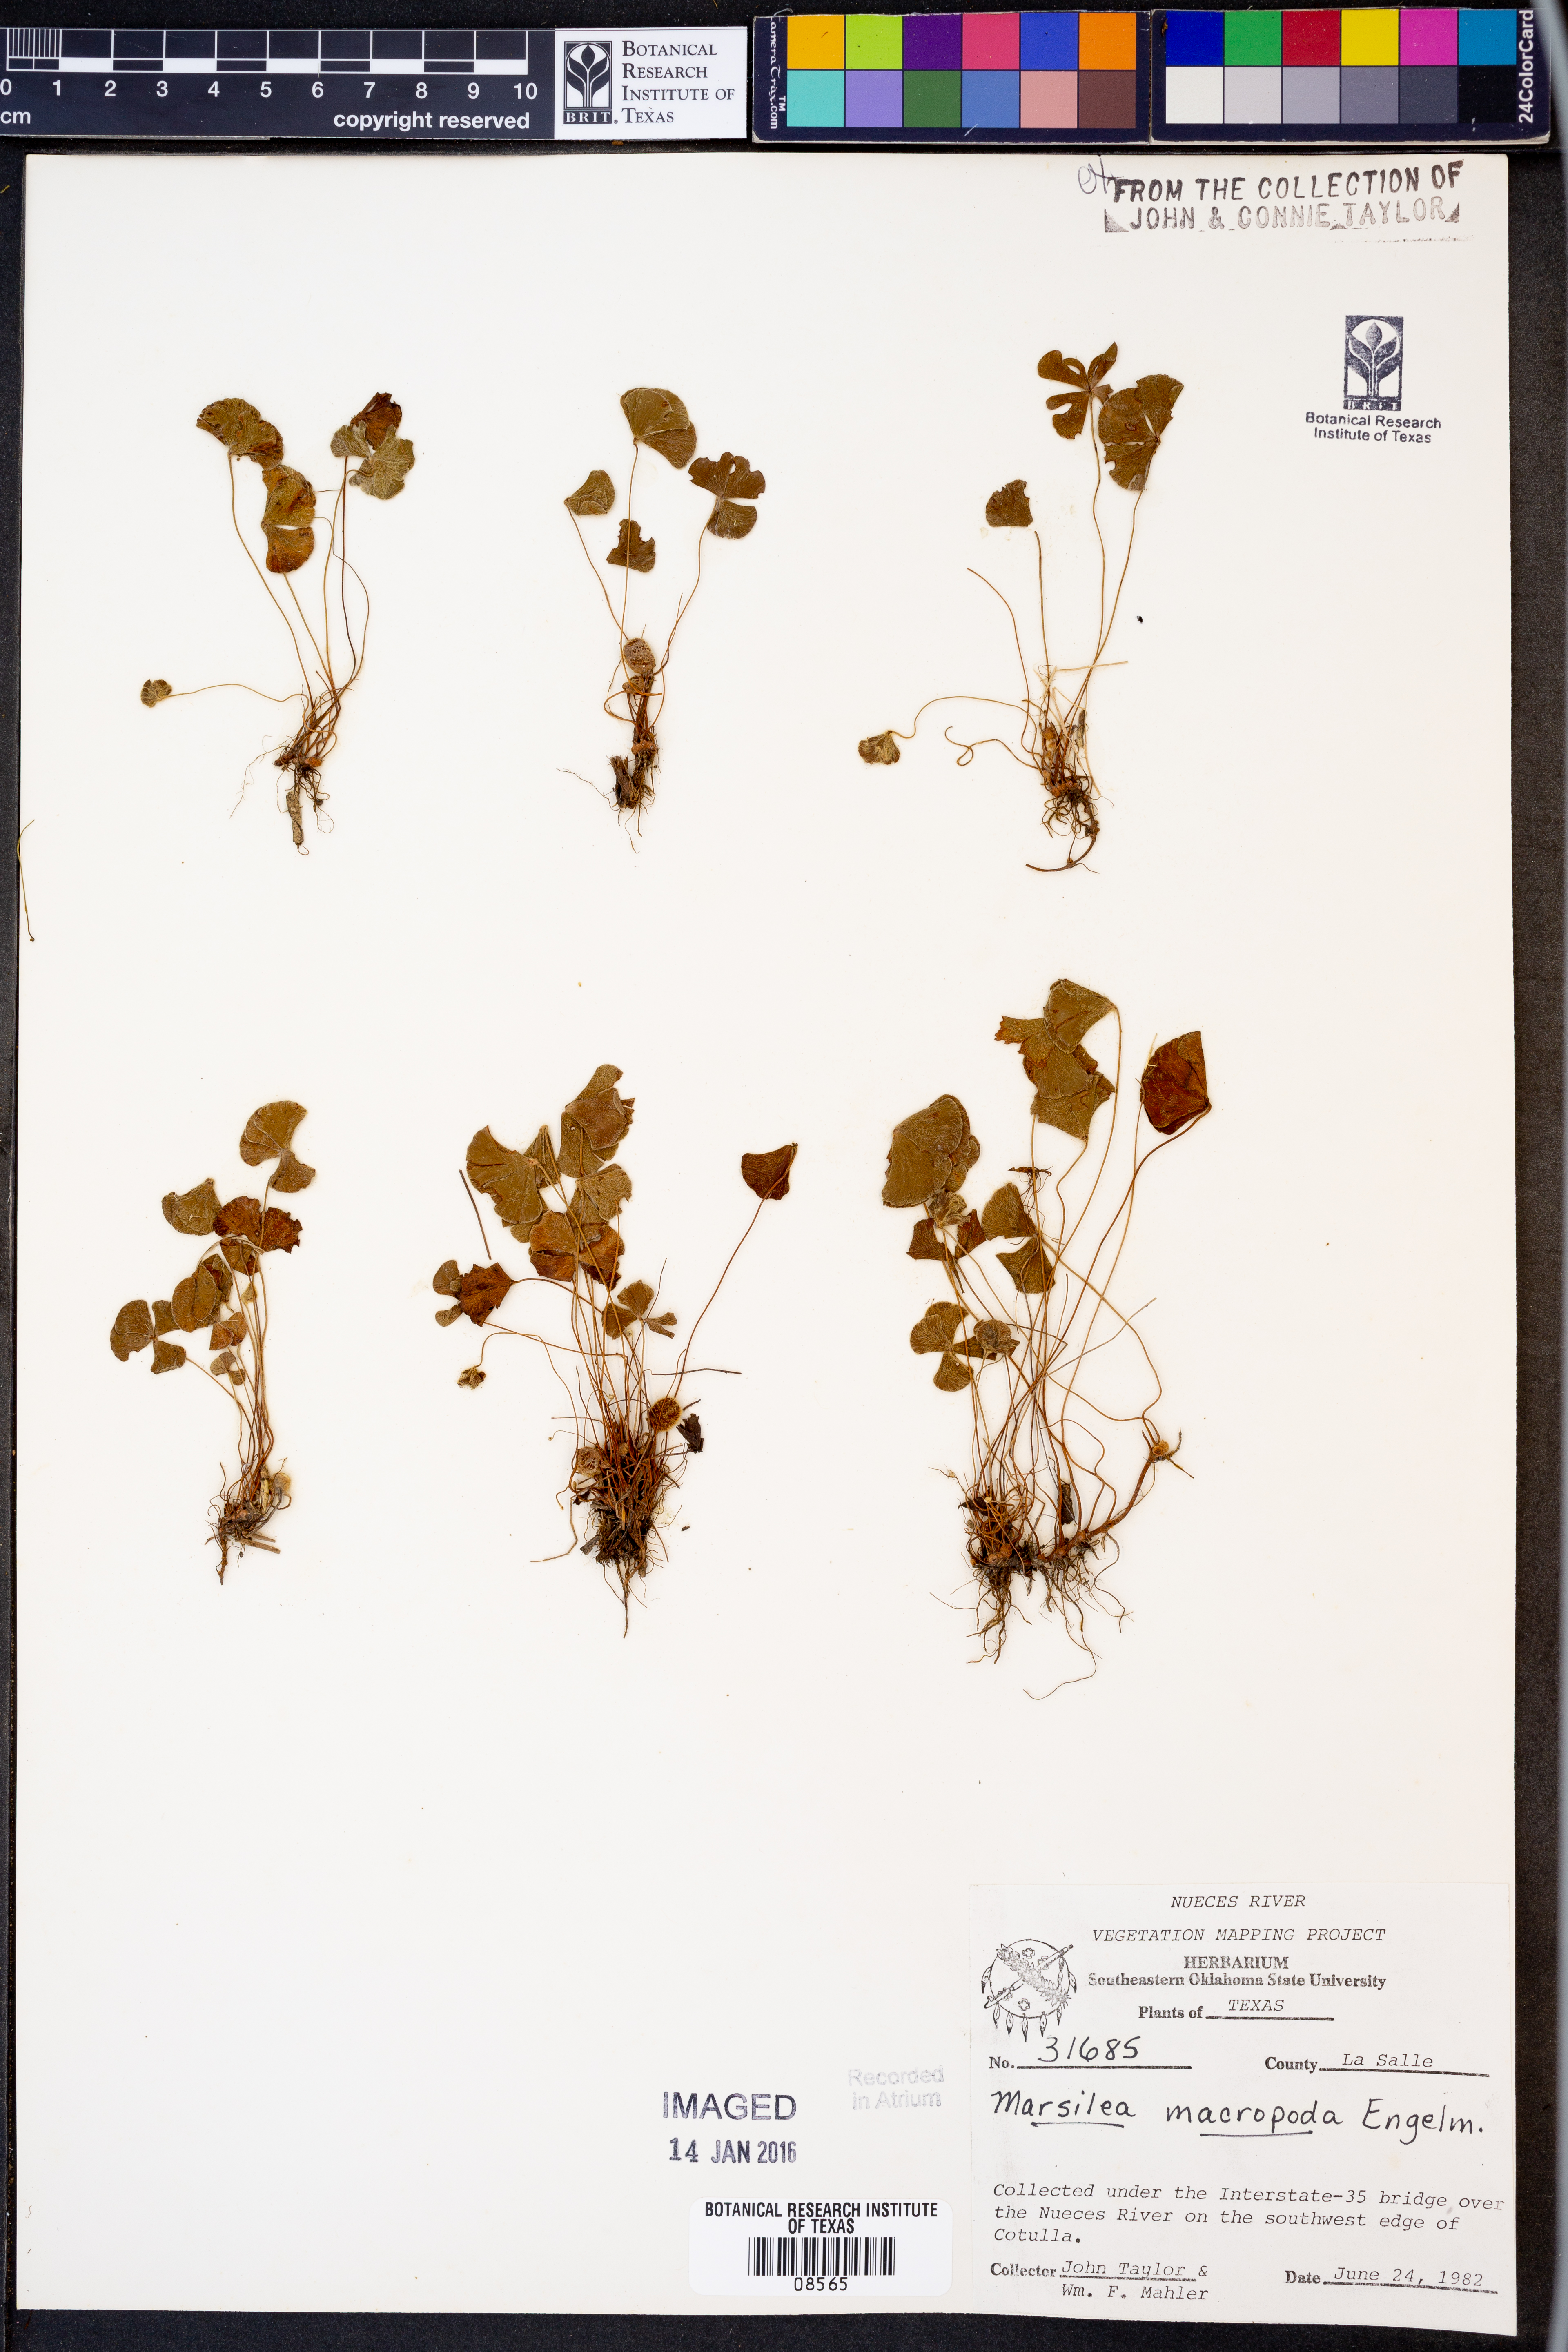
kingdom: Plantae
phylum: Tracheophyta
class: Polypodiopsida
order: Salviniales
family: Marsileaceae
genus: Marsilea
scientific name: Marsilea macropoda
